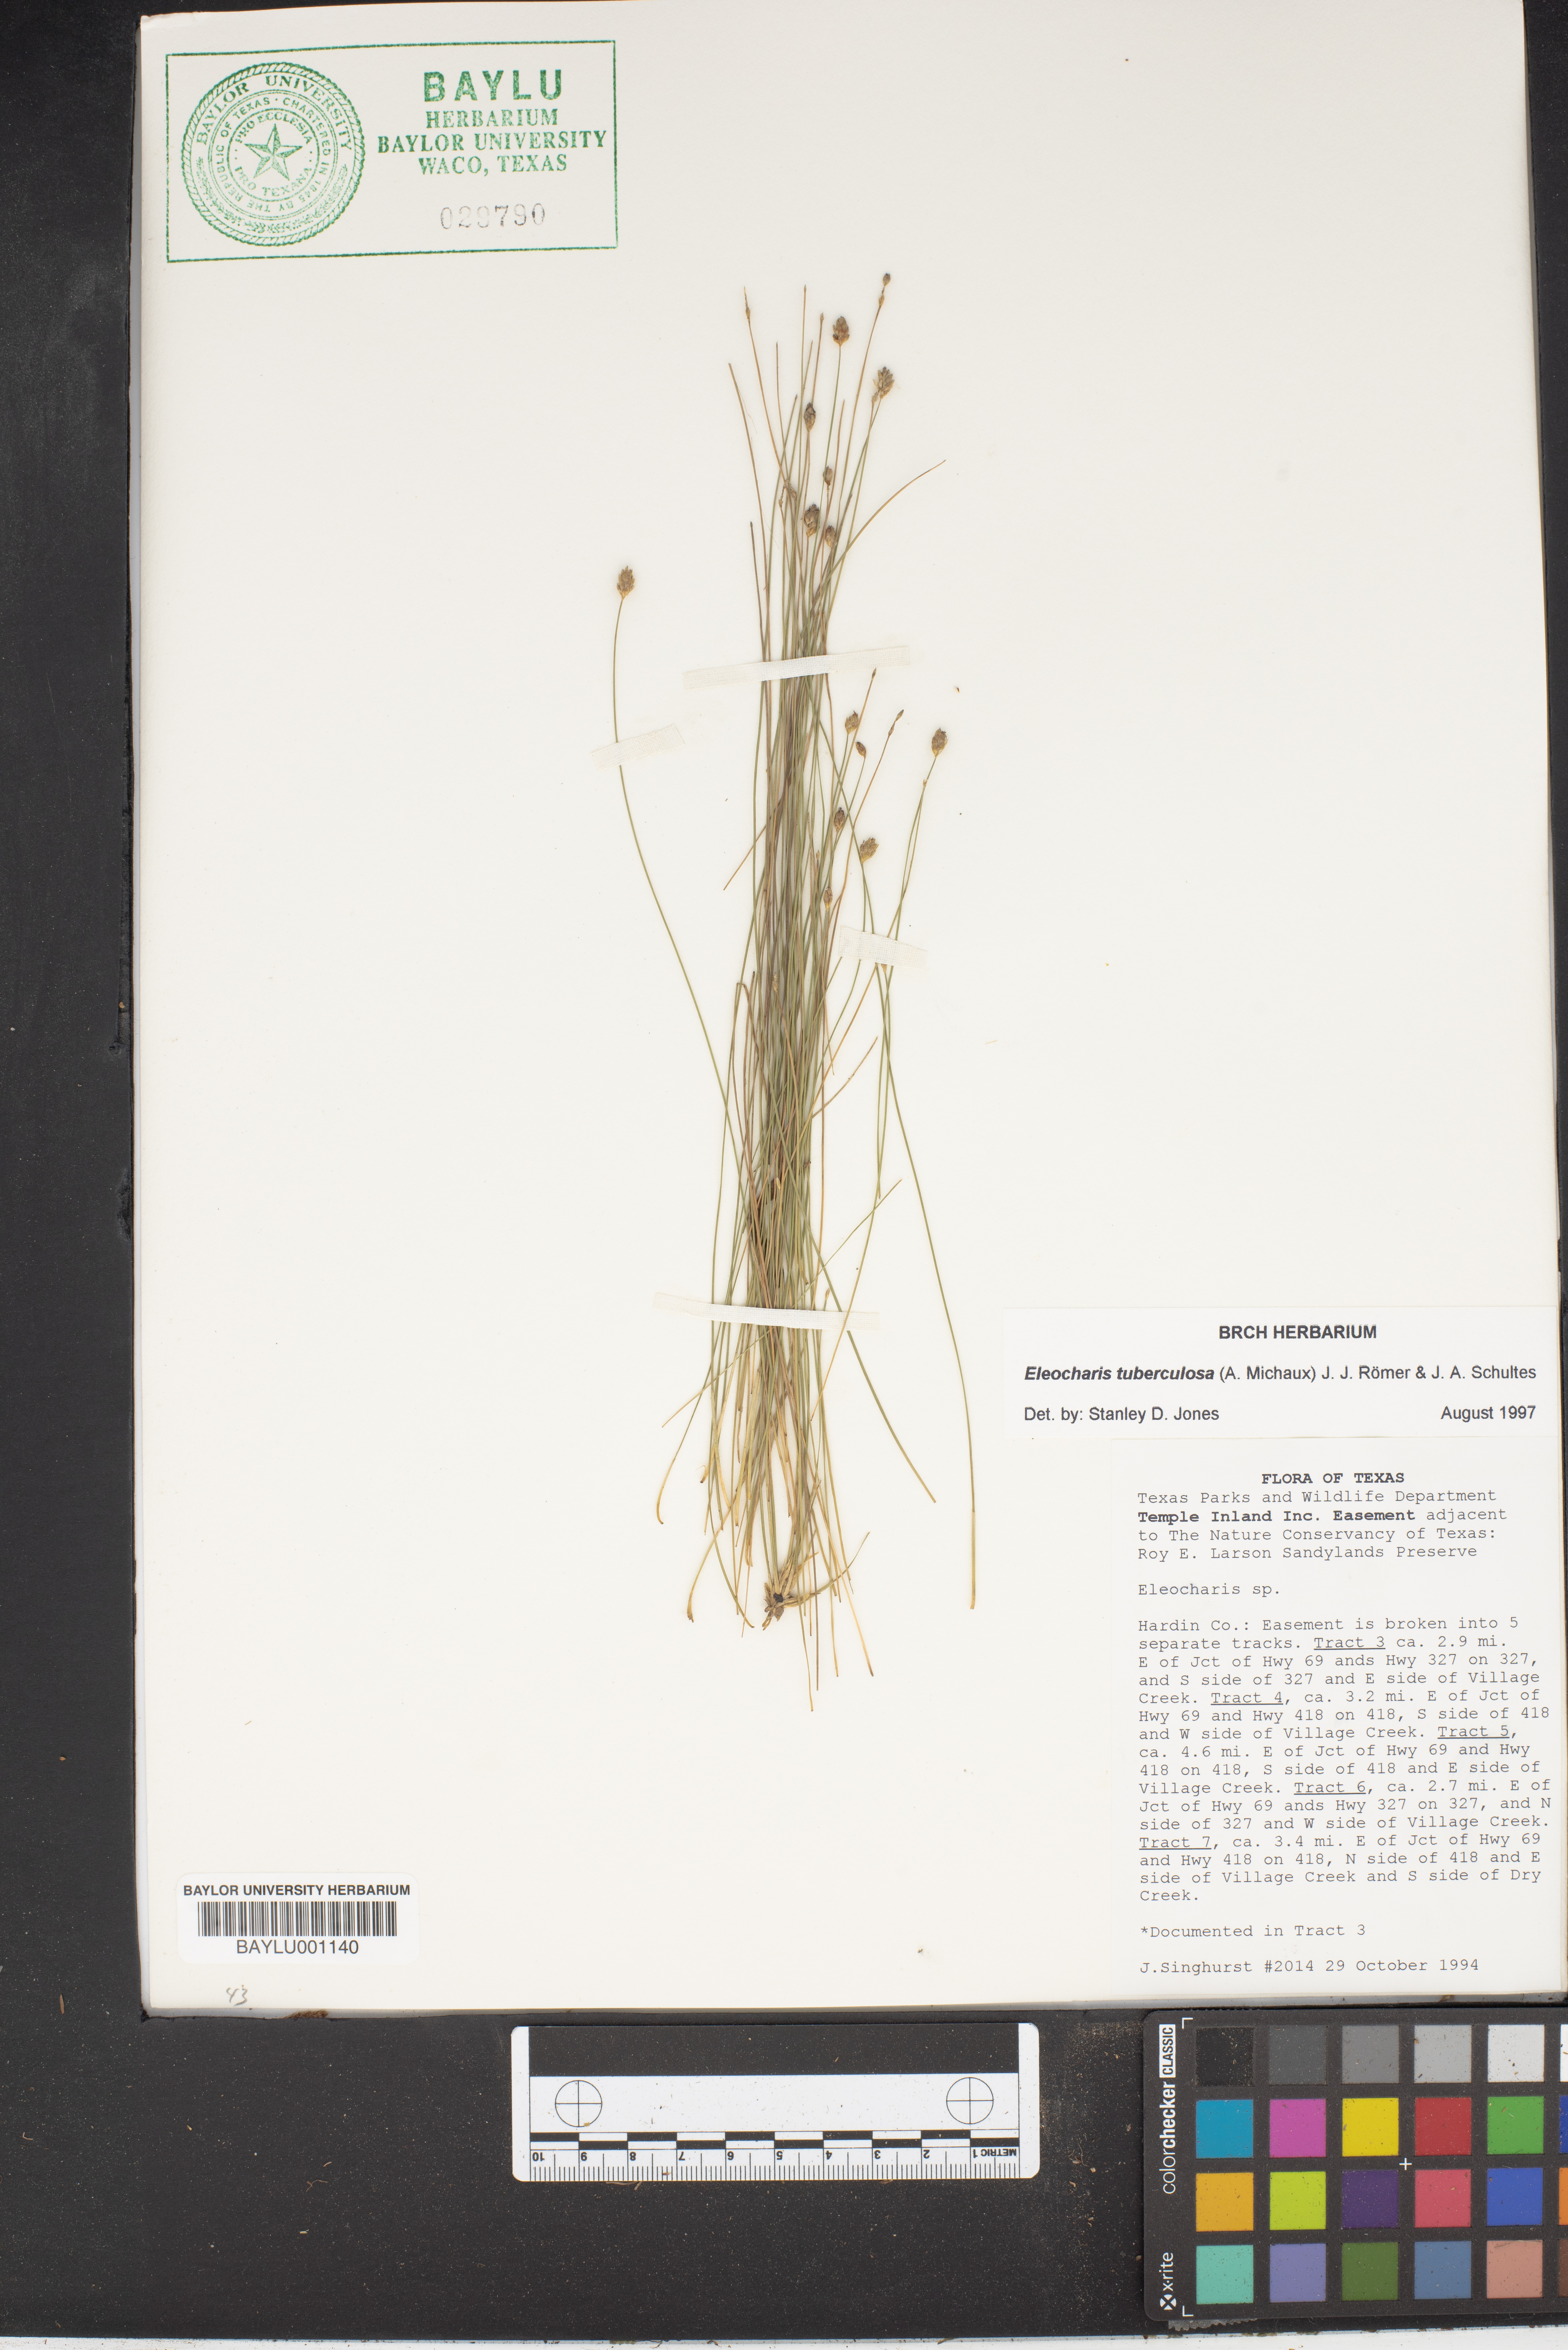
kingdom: Plantae
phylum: Tracheophyta
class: Liliopsida
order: Poales
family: Cyperaceae
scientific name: Cyperaceae
